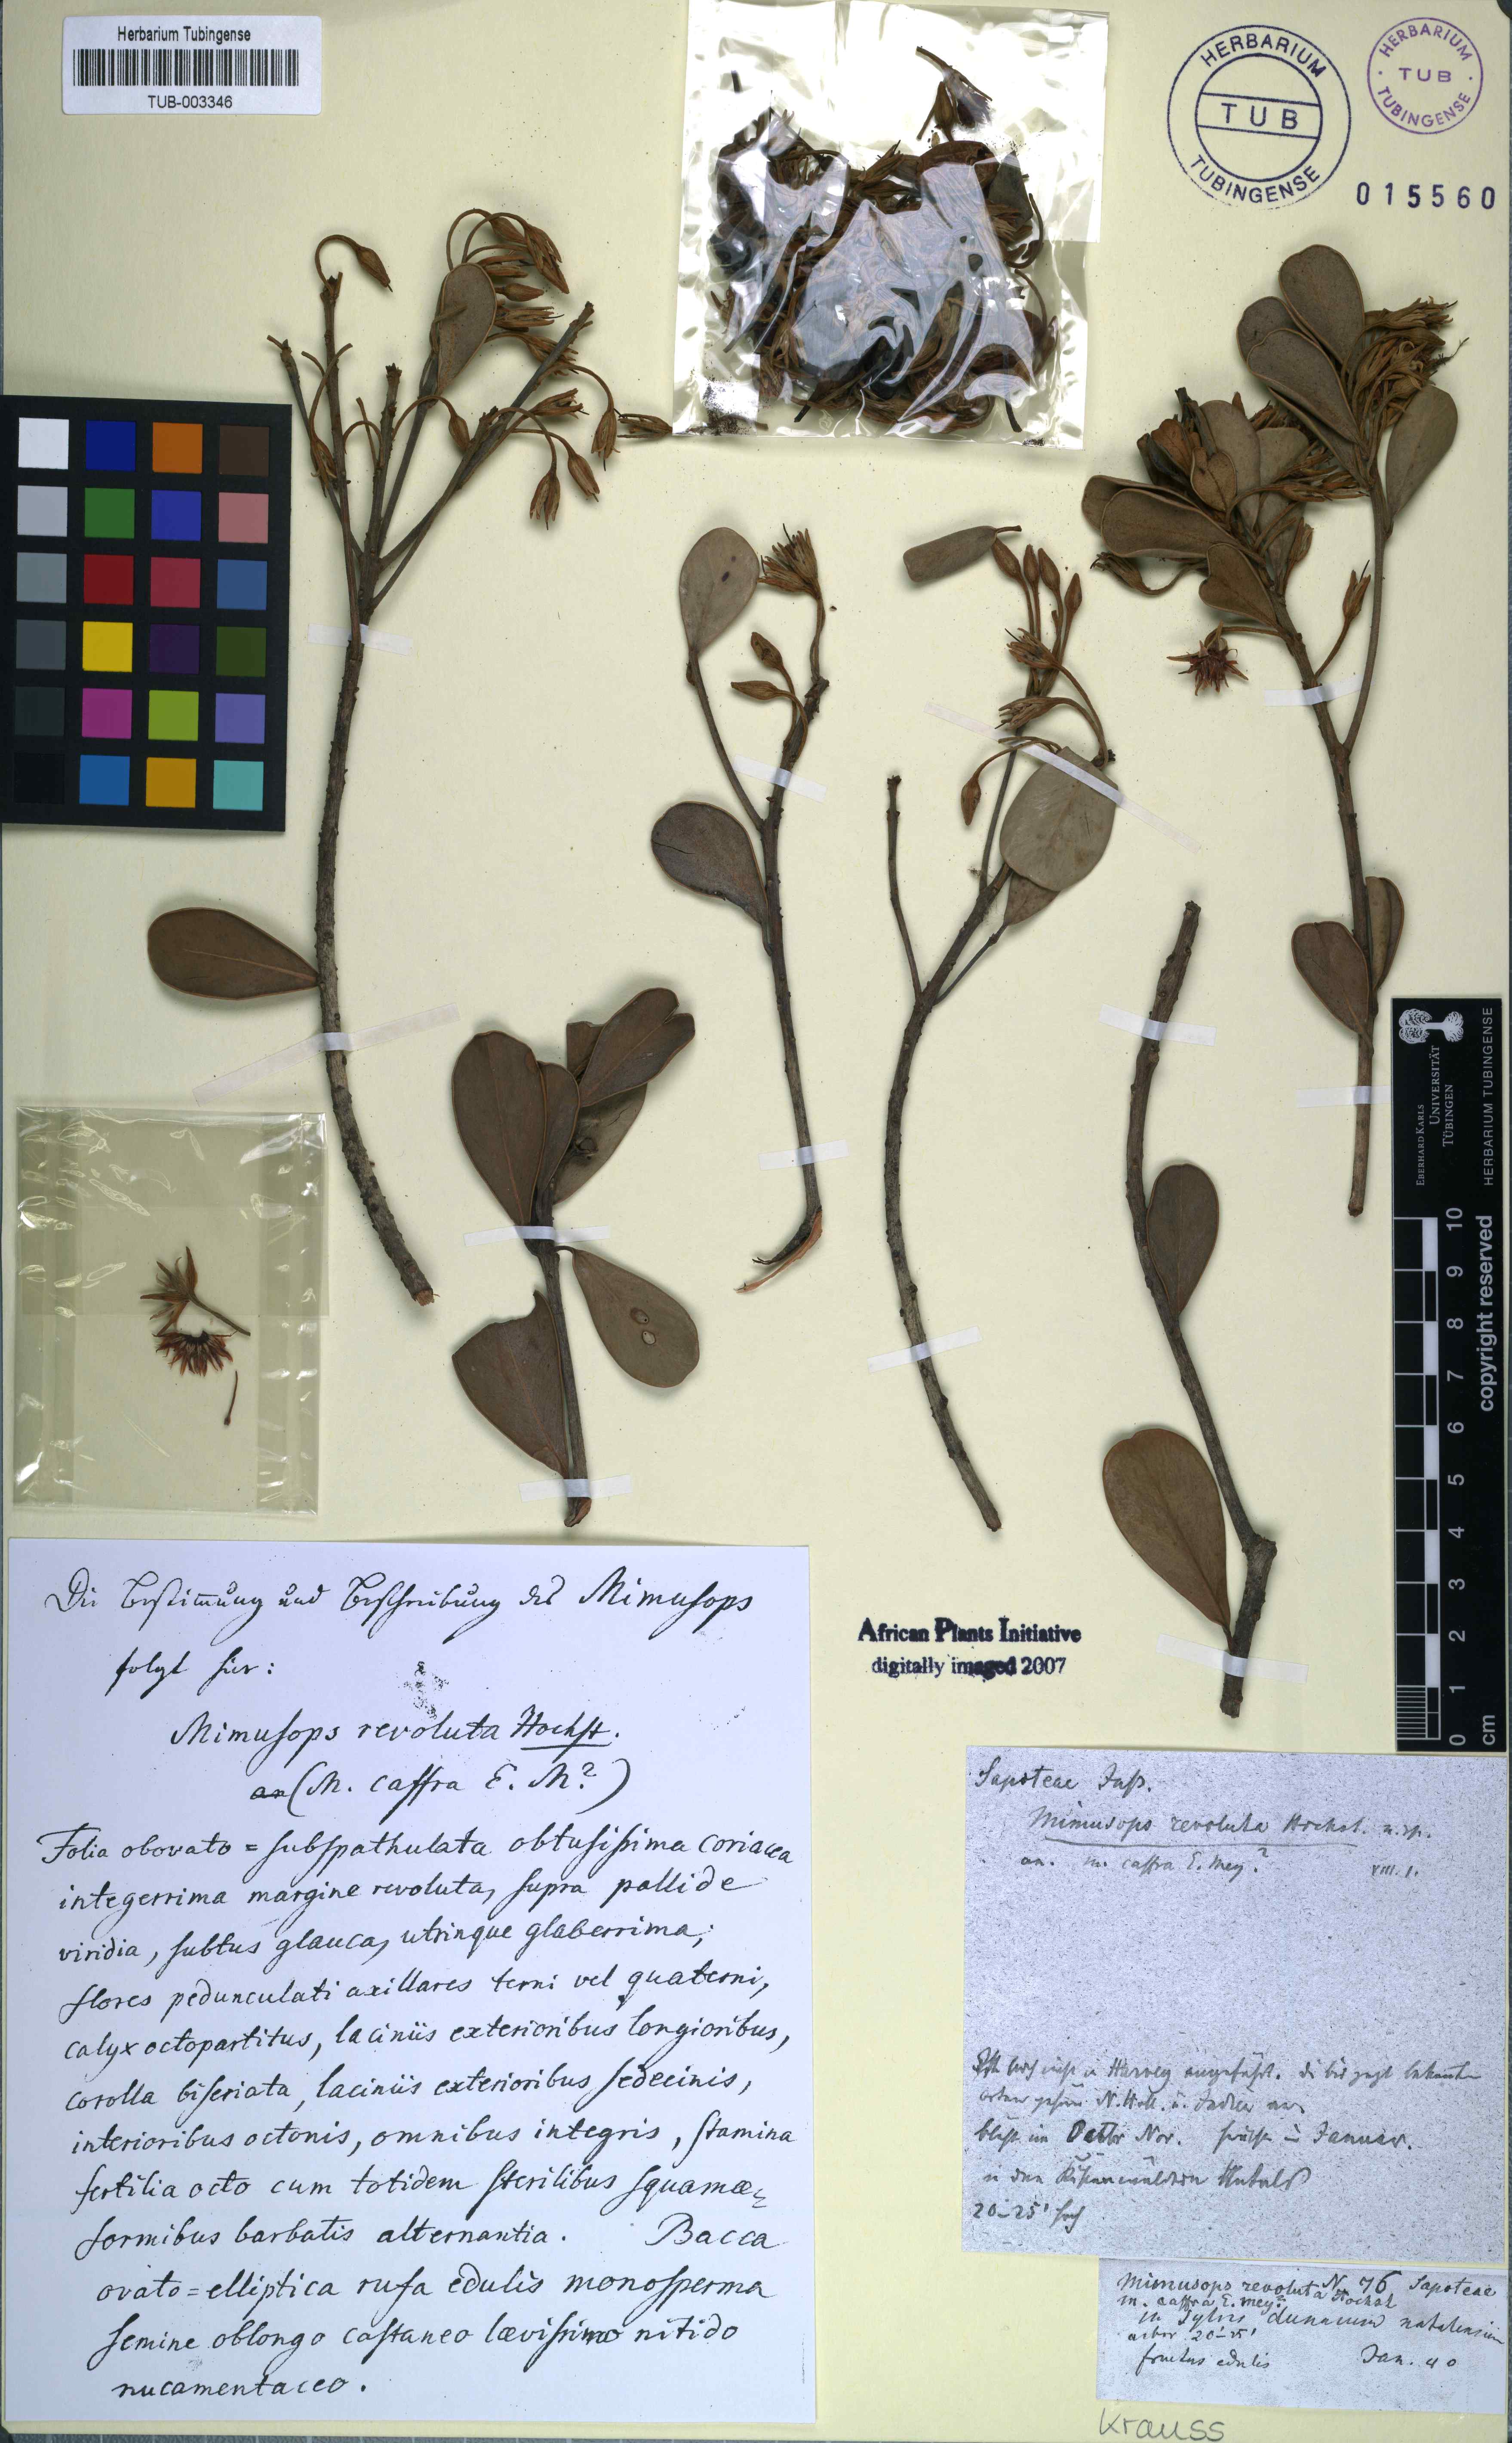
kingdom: Plantae
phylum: Tracheophyta
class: Magnoliopsida
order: Ericales
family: Sapotaceae
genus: Mimusops
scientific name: Mimusops caffra
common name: Coastal red milkwood
